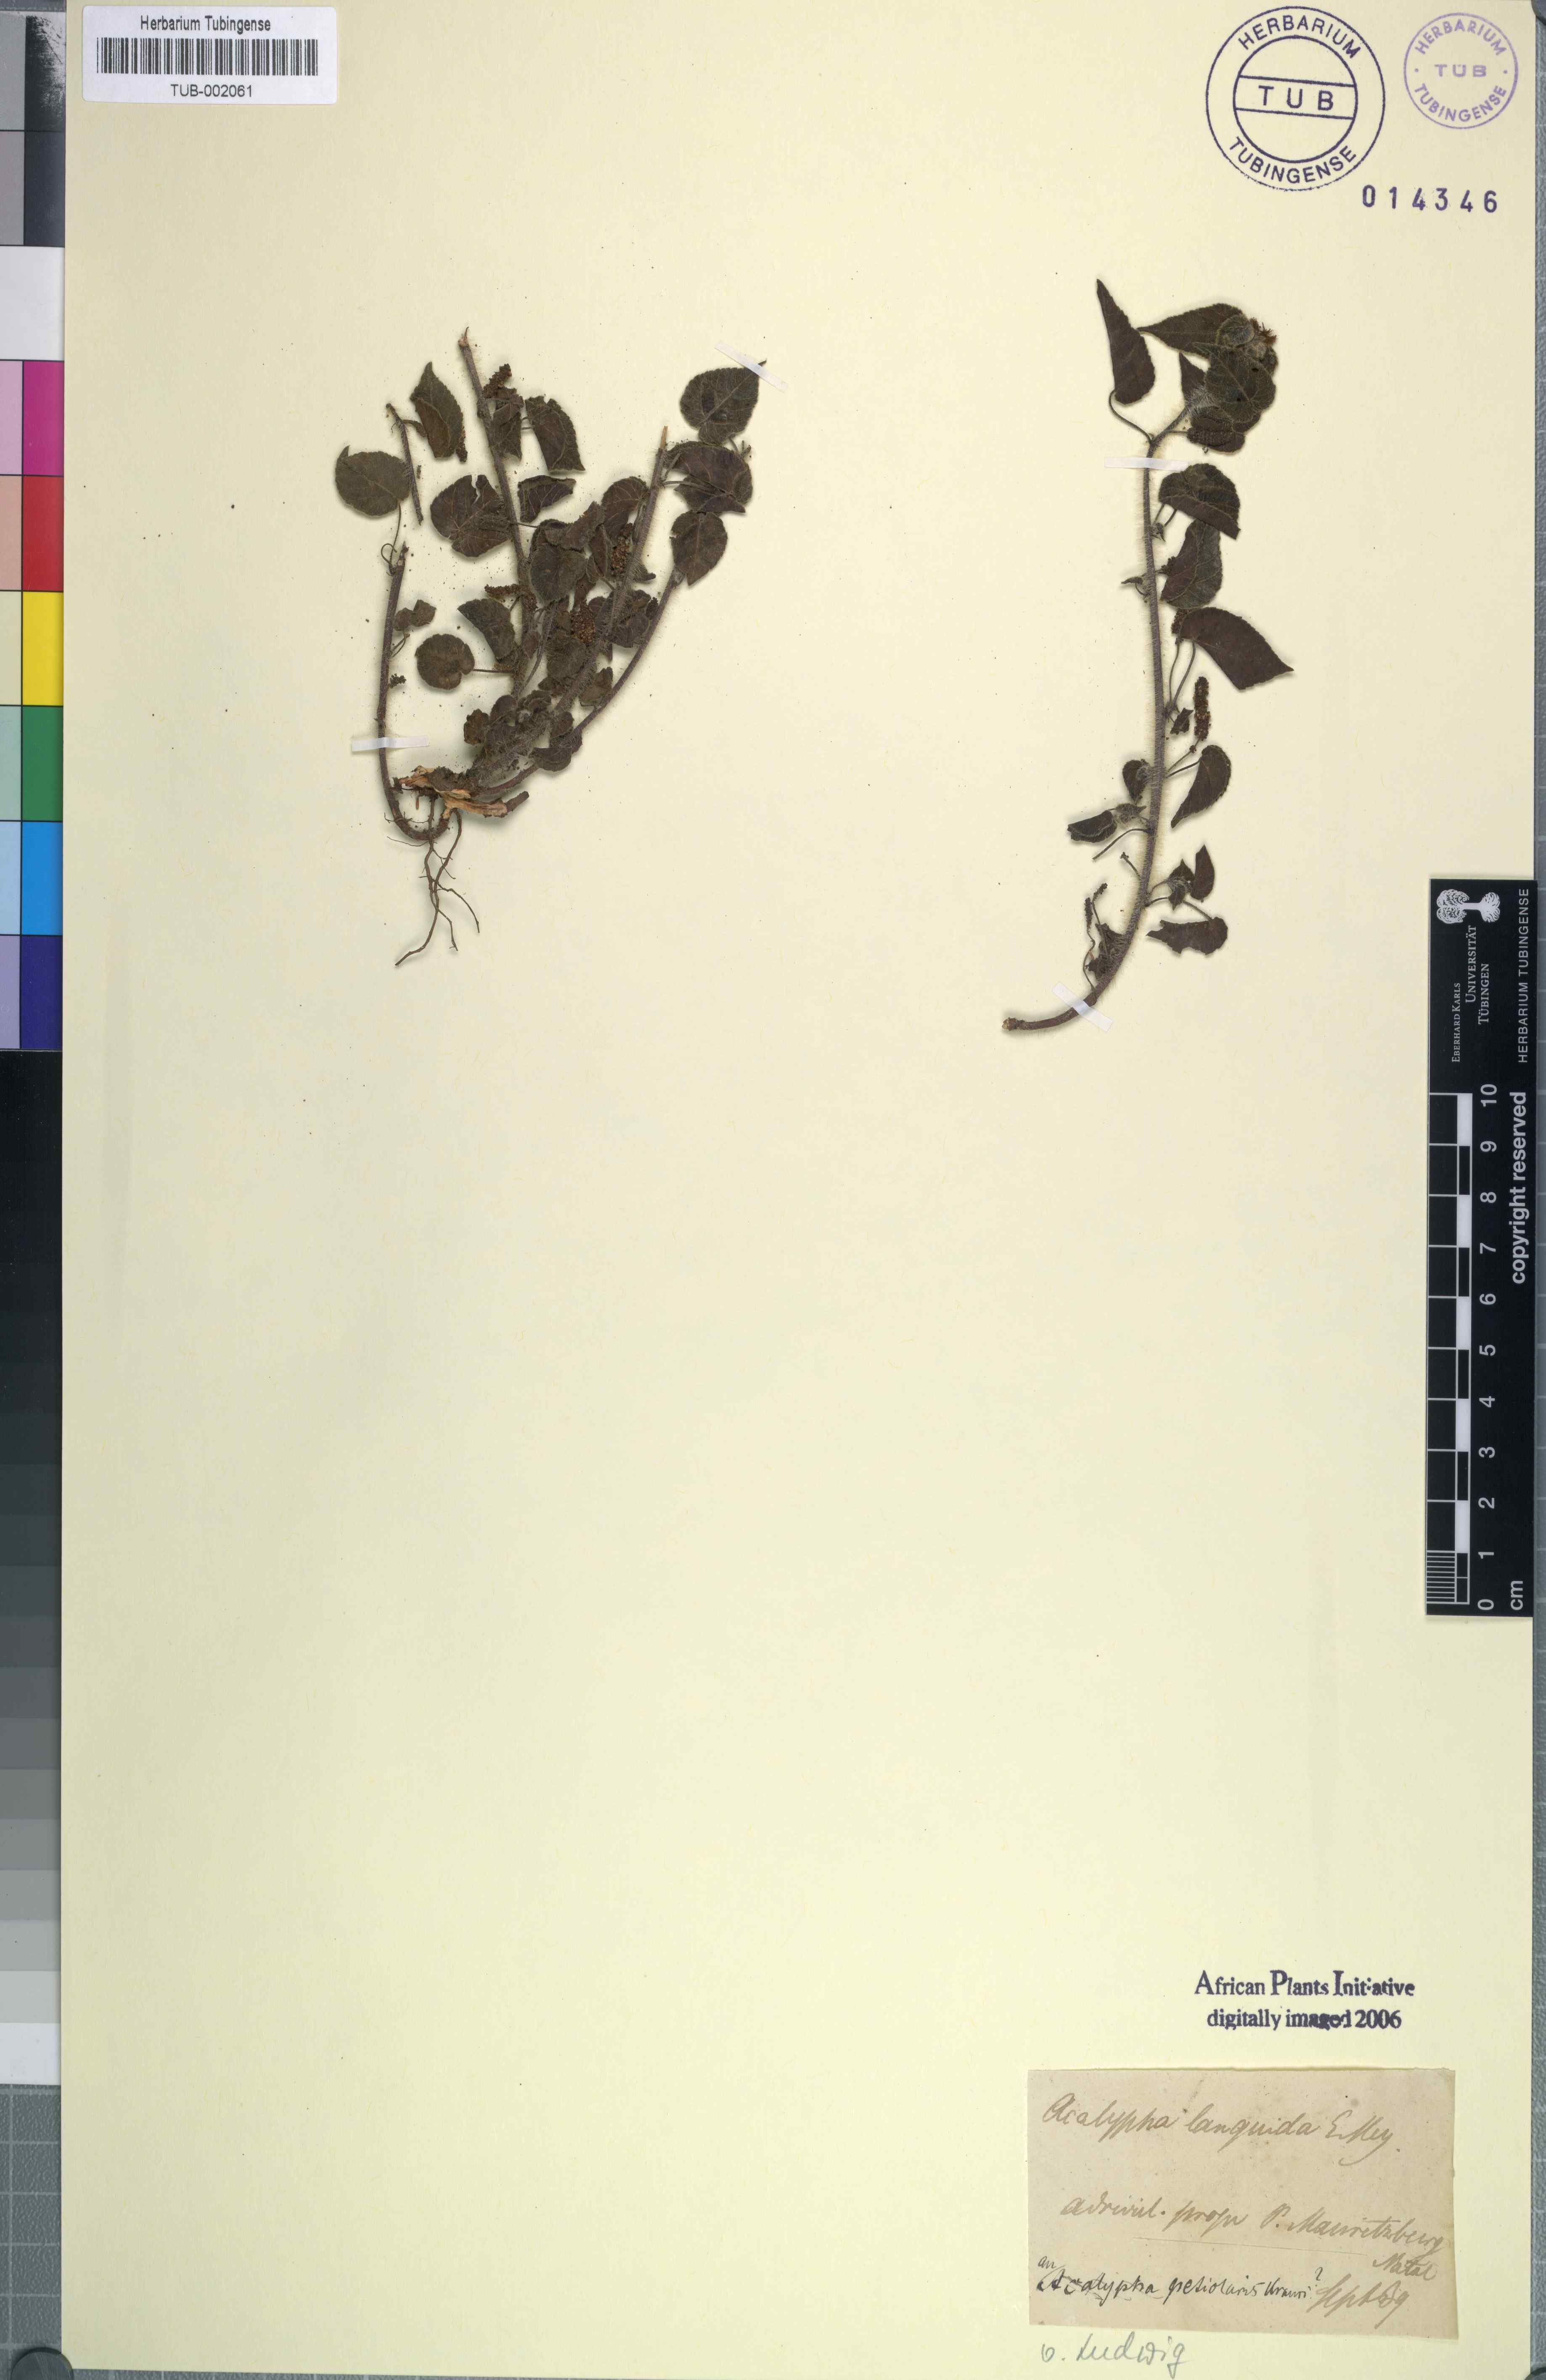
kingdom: Plantae
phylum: Tracheophyta
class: Magnoliopsida
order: Malpighiales
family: Euphorbiaceae
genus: Acalypha
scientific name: Acalypha petiolaris
